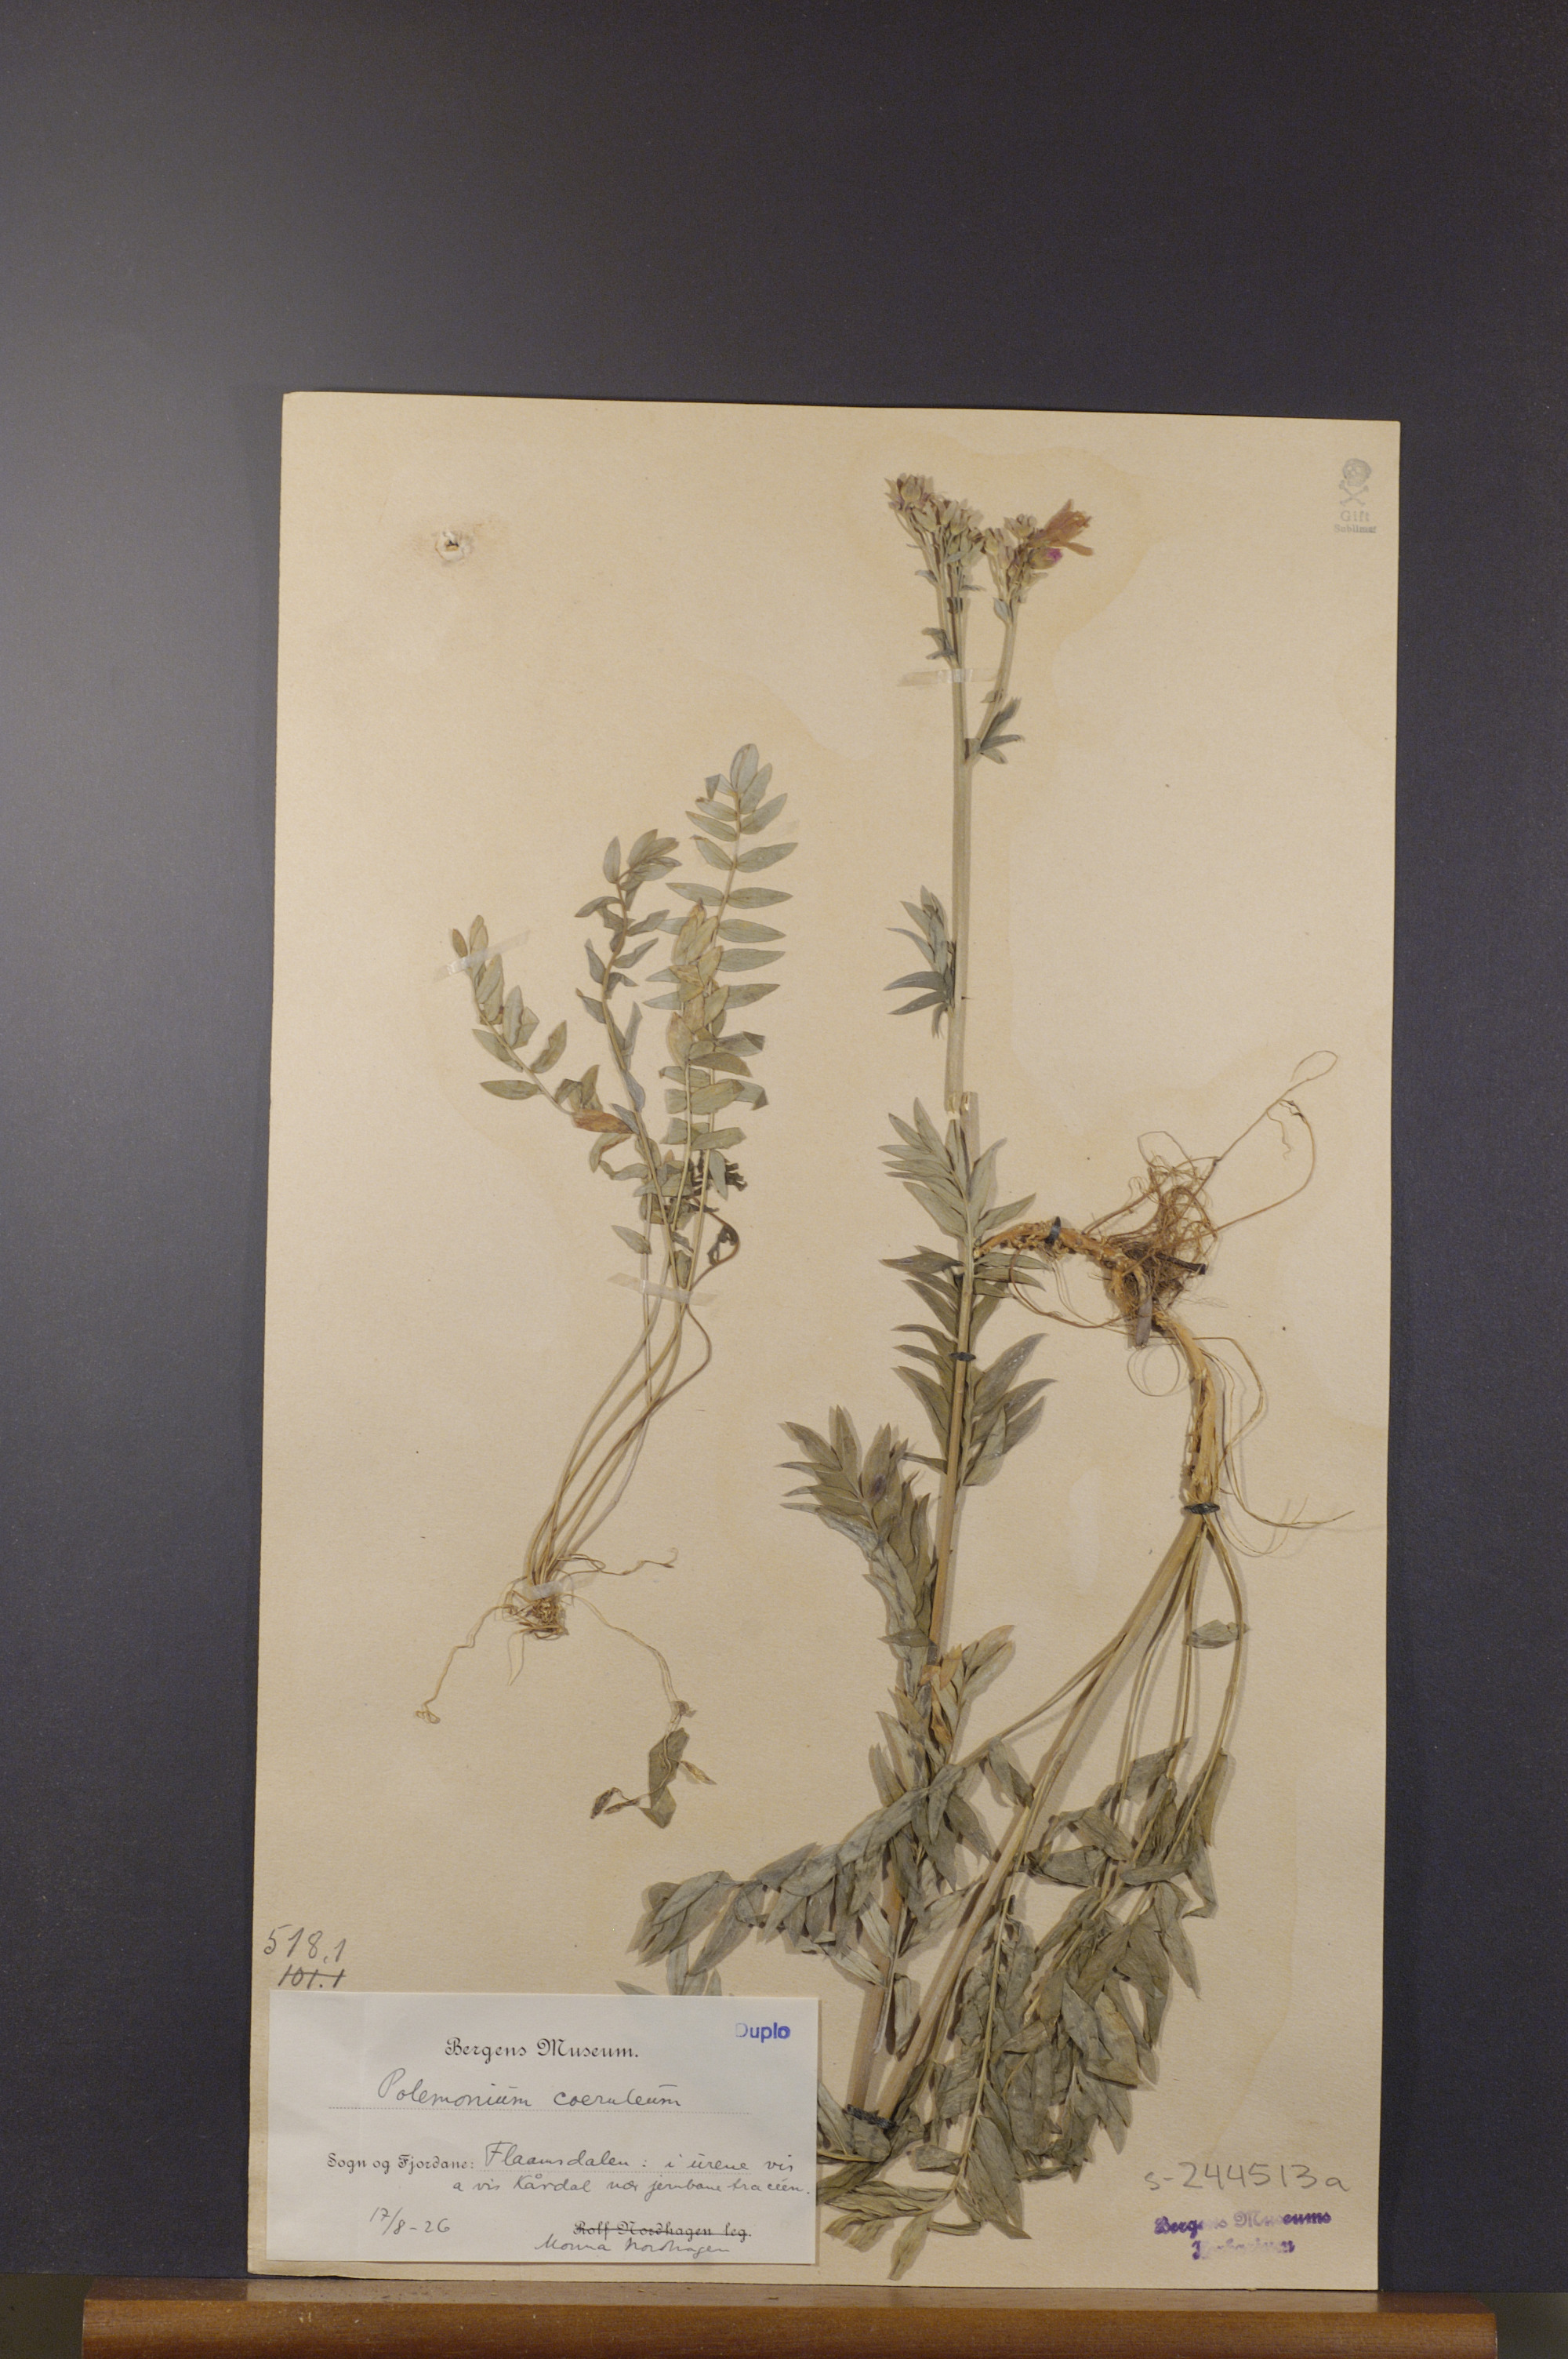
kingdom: Plantae
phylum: Tracheophyta
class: Magnoliopsida
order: Ericales
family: Polemoniaceae
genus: Polemonium
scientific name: Polemonium caeruleum
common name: Jacob's-ladder
